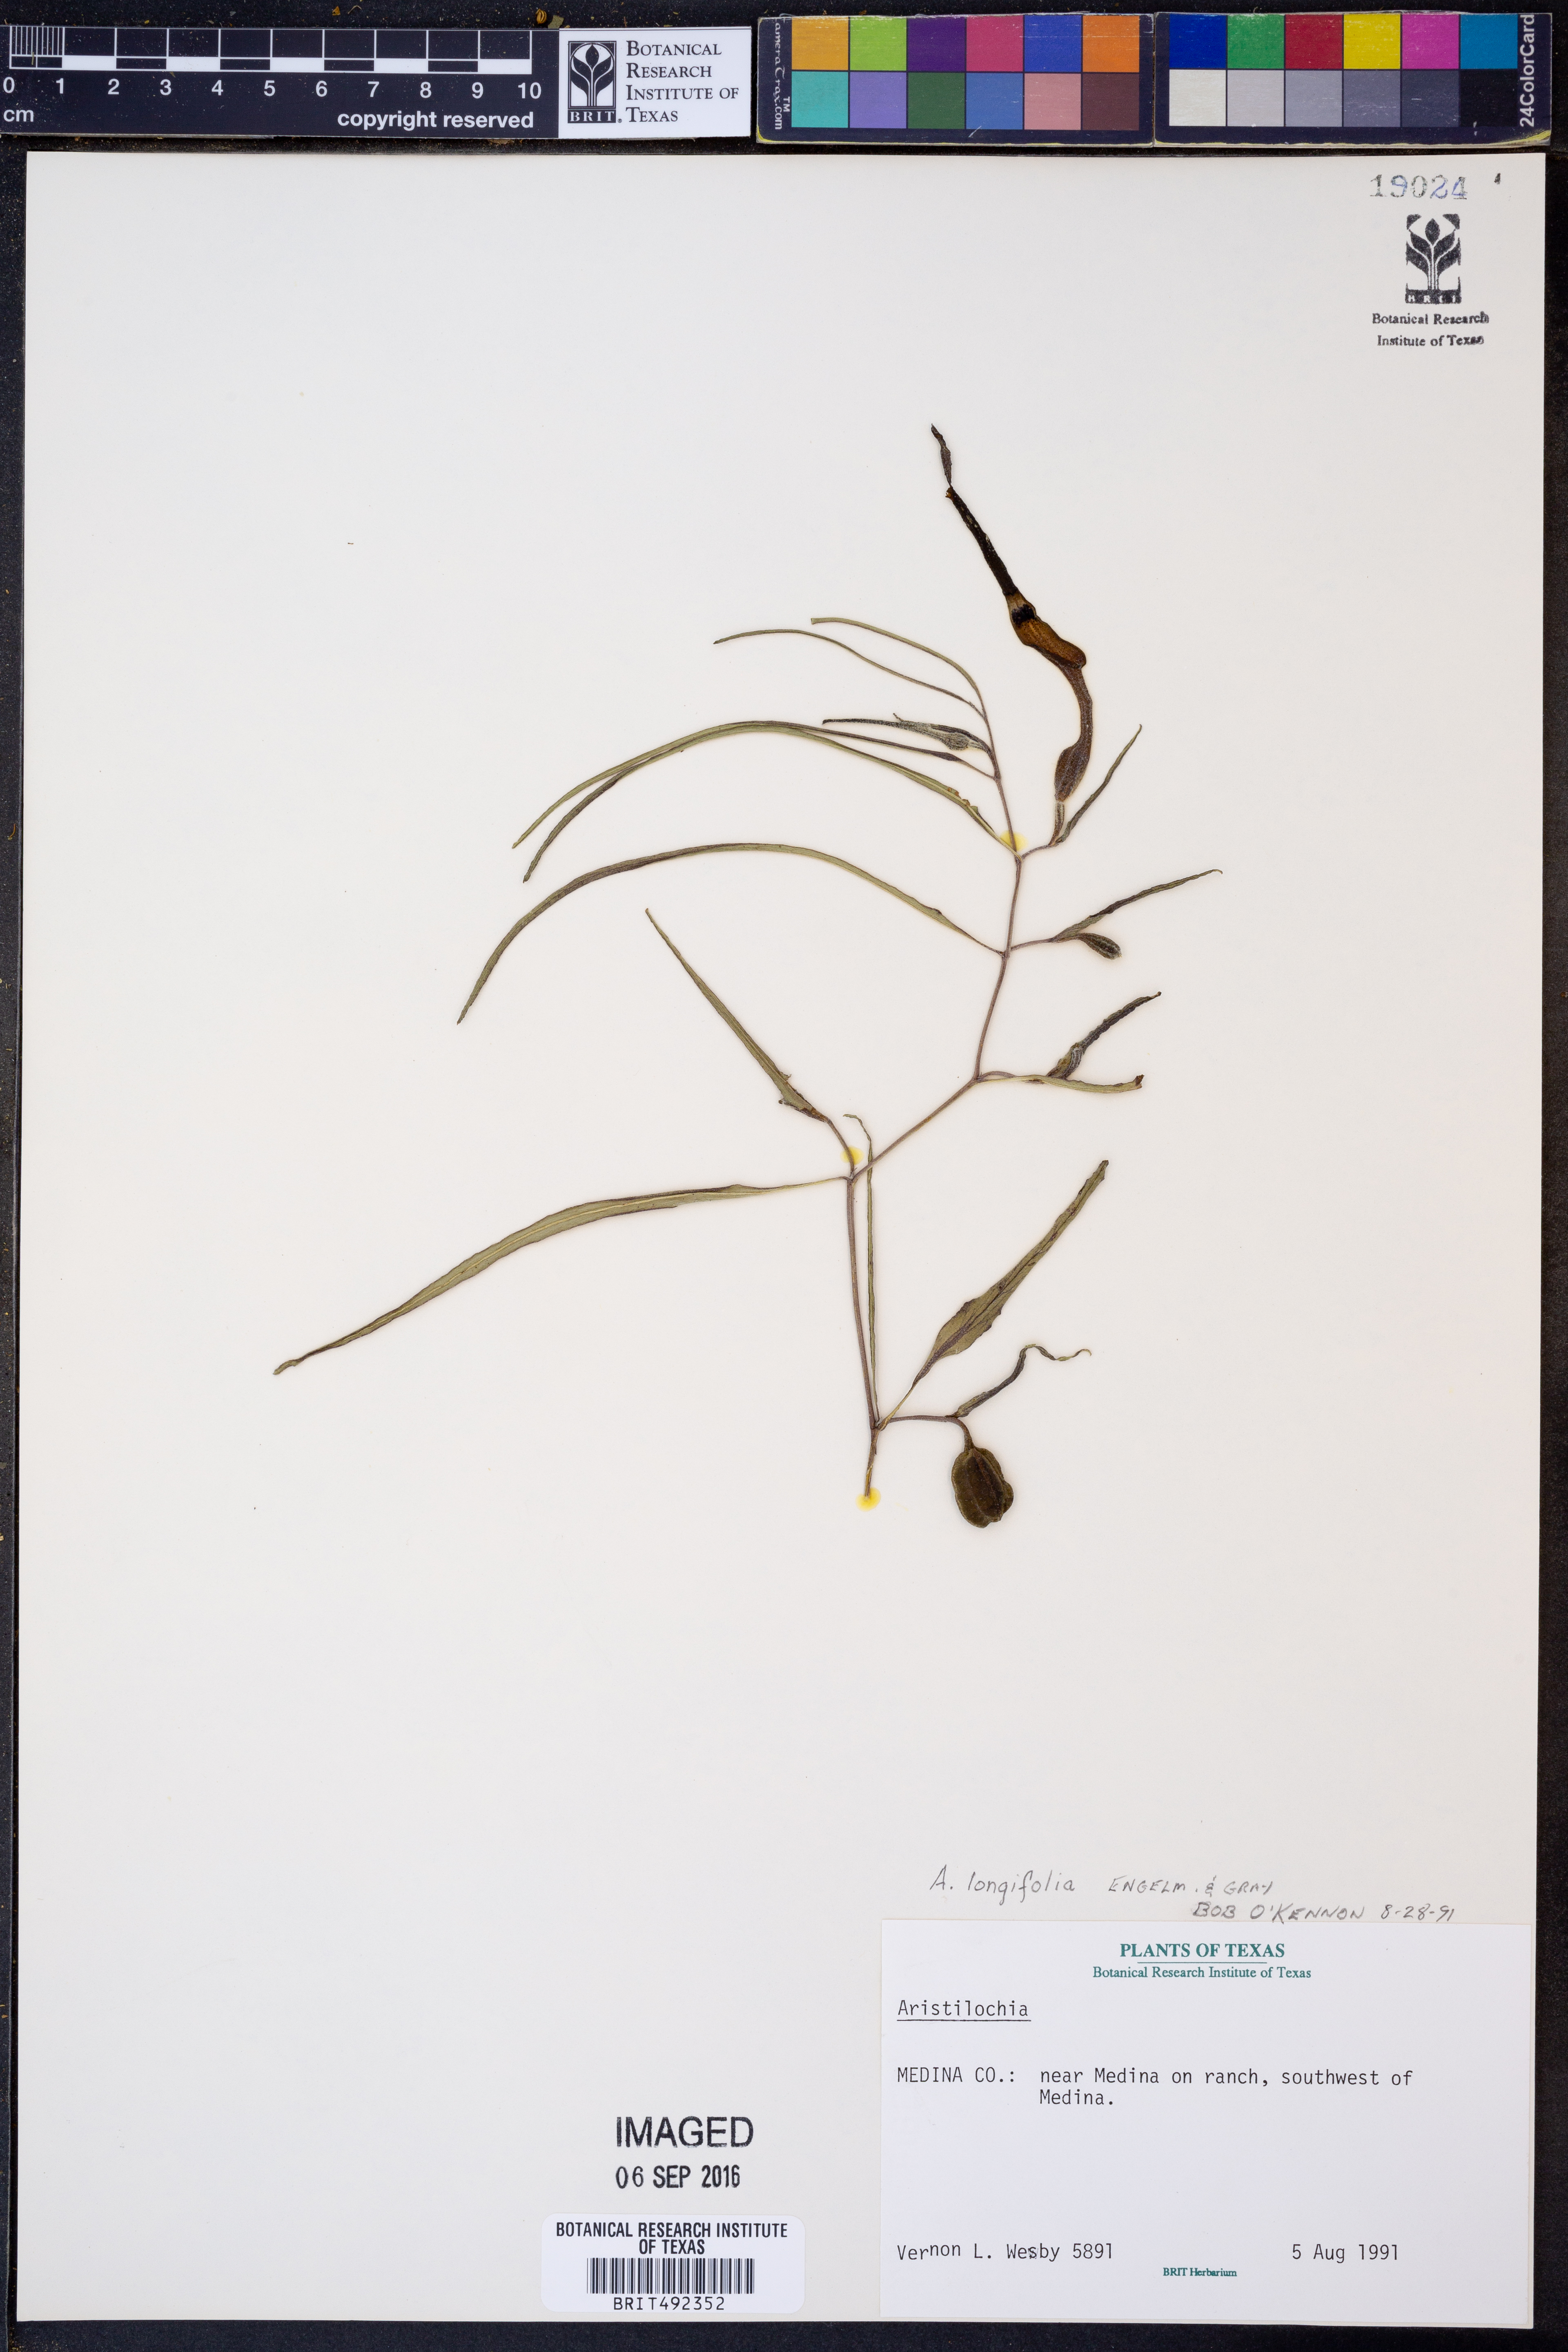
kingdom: Plantae
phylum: Tracheophyta
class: Magnoliopsida
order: Piperales
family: Aristolochiaceae
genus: Aristolochia
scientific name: Aristolochia acuminata
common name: Indian birthwort
